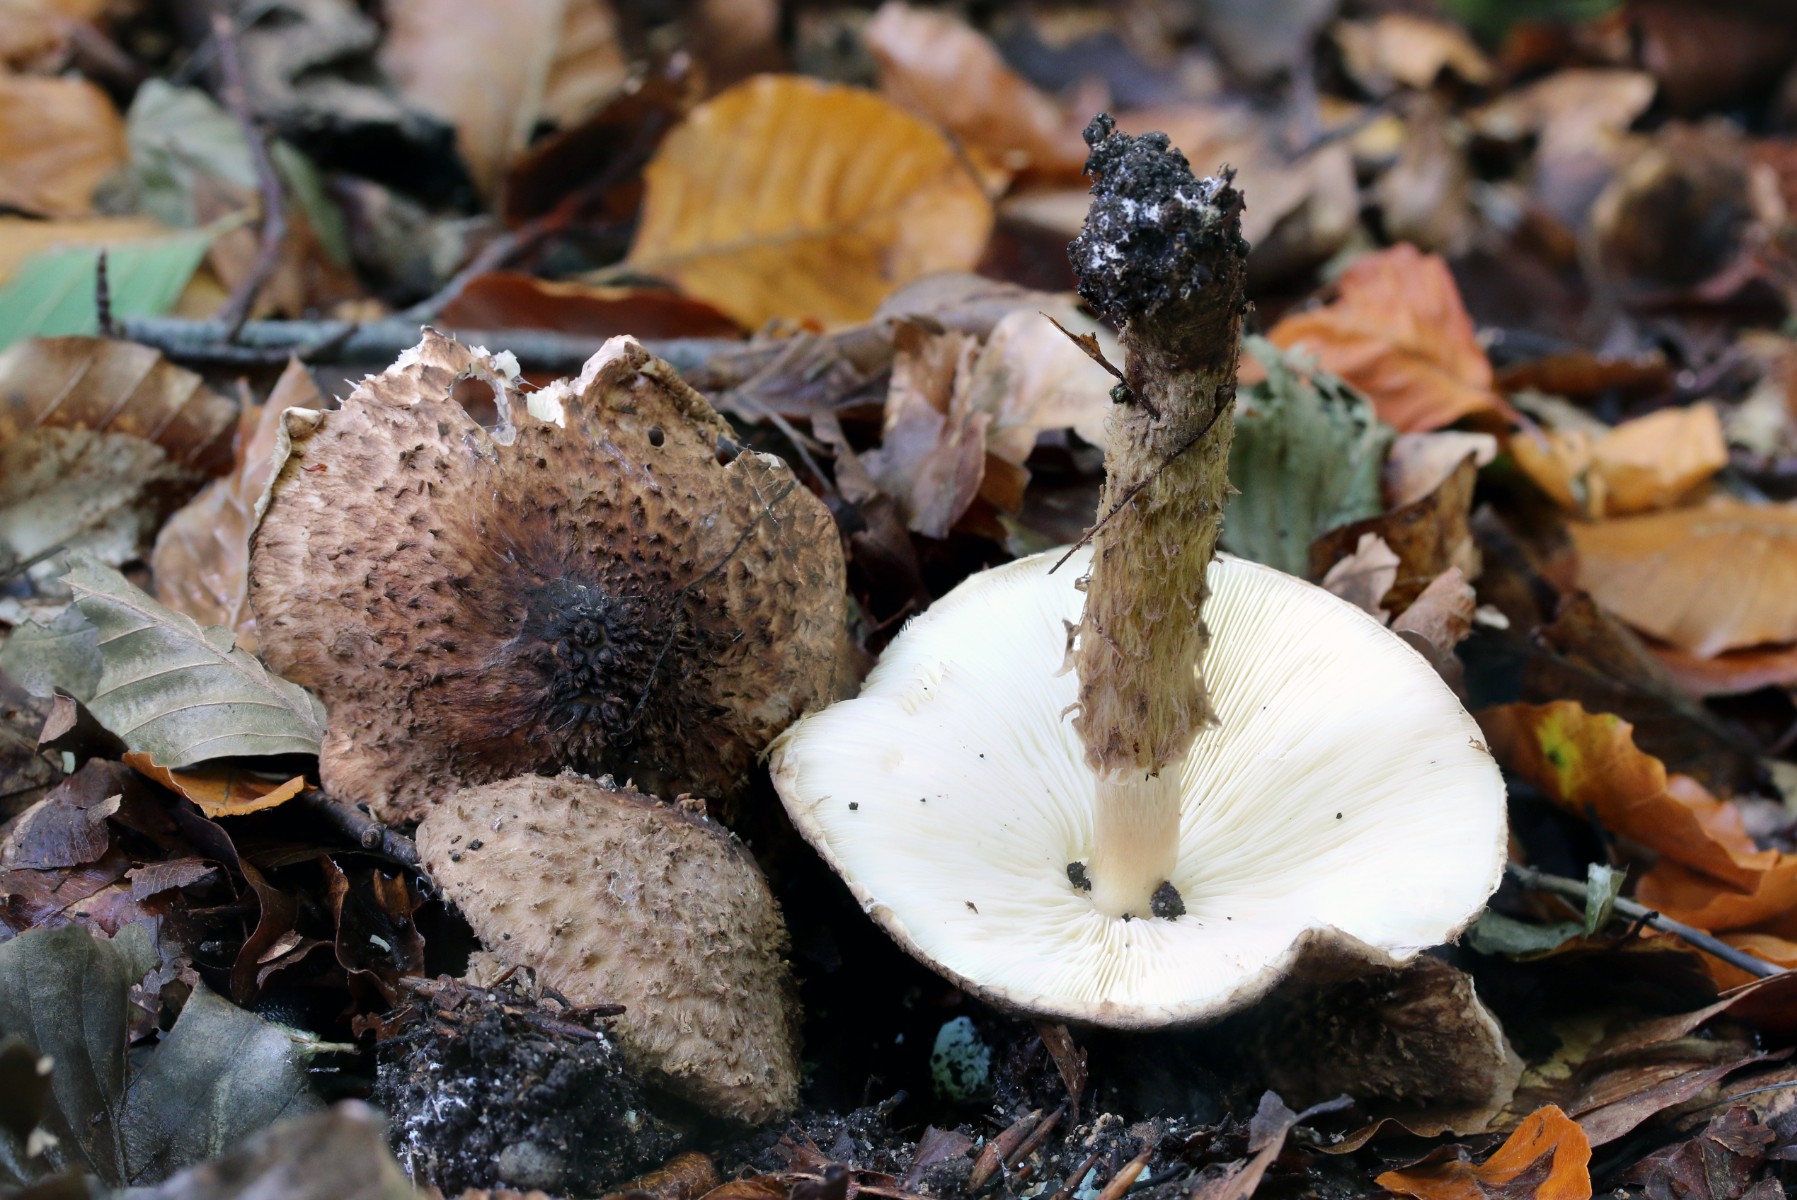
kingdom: Fungi
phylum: Basidiomycota
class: Agaricomycetes
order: Agaricales
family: Agaricaceae
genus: Echinoderma
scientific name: Echinoderma jacobi
